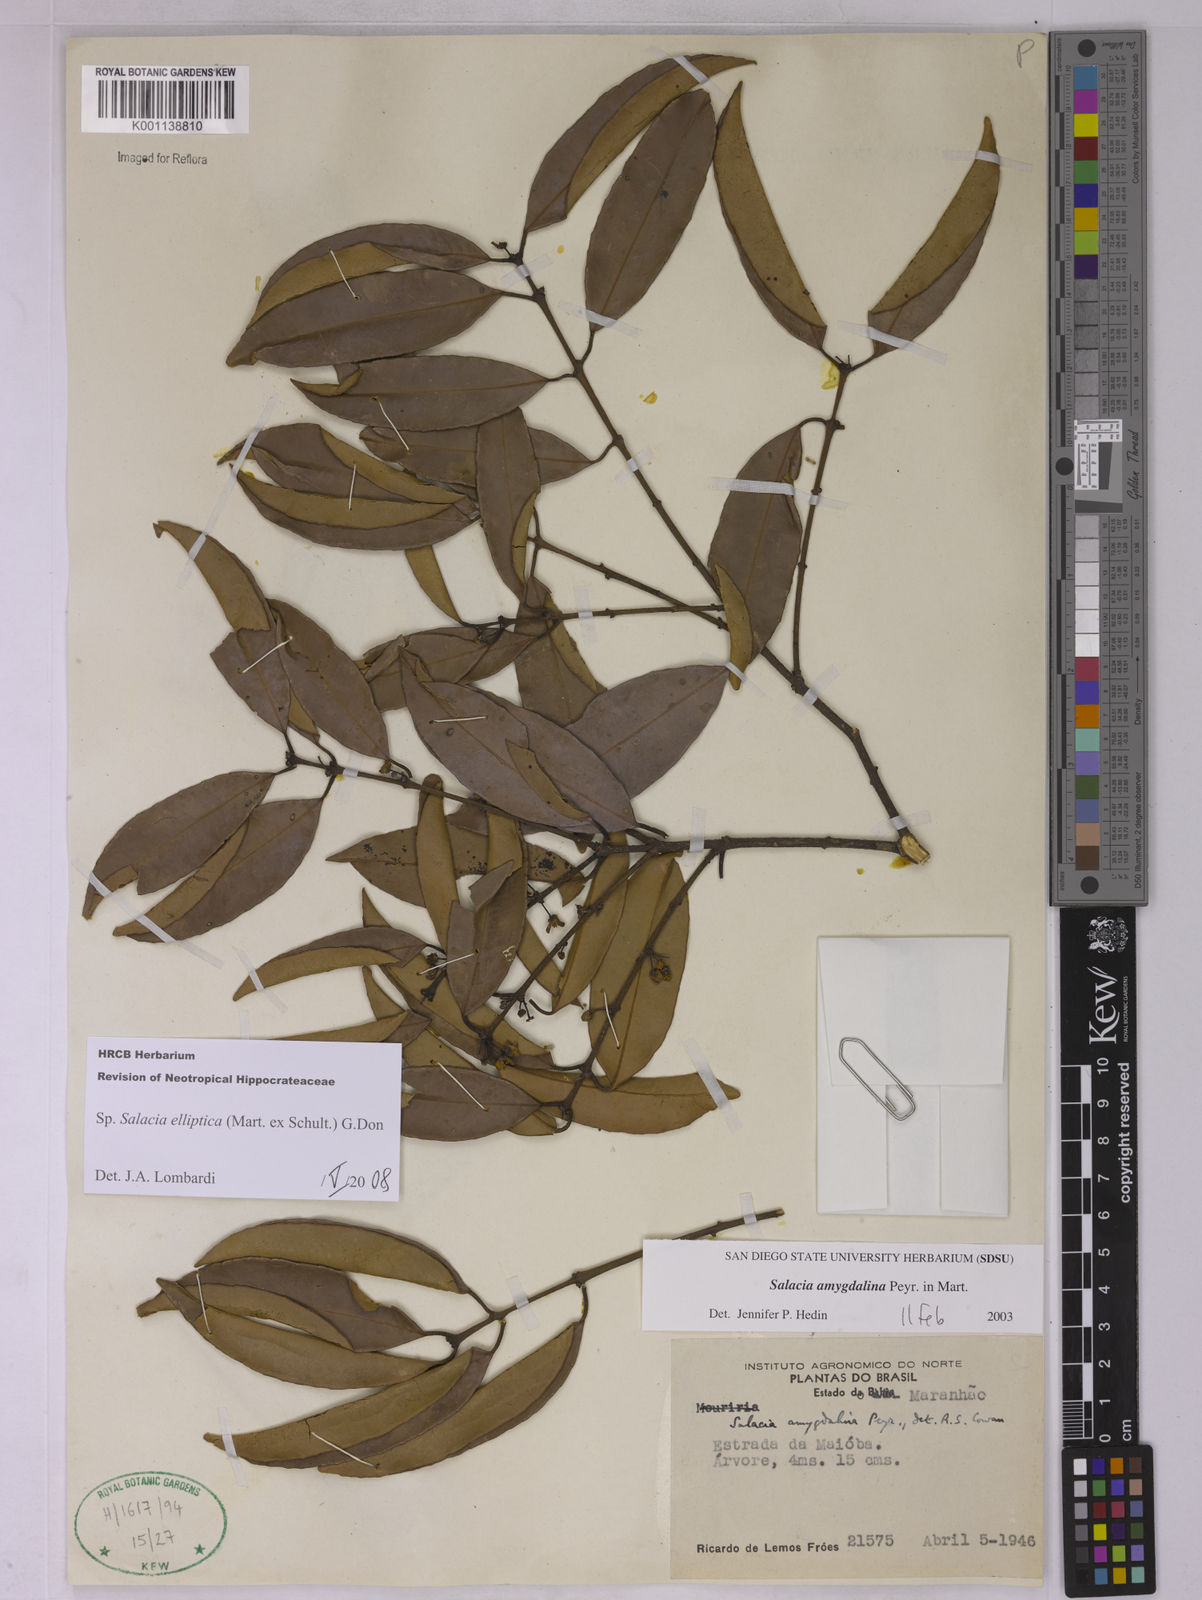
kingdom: Plantae
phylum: Tracheophyta
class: Magnoliopsida
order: Celastrales
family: Celastraceae
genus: Salacia
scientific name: Salacia elliptica
